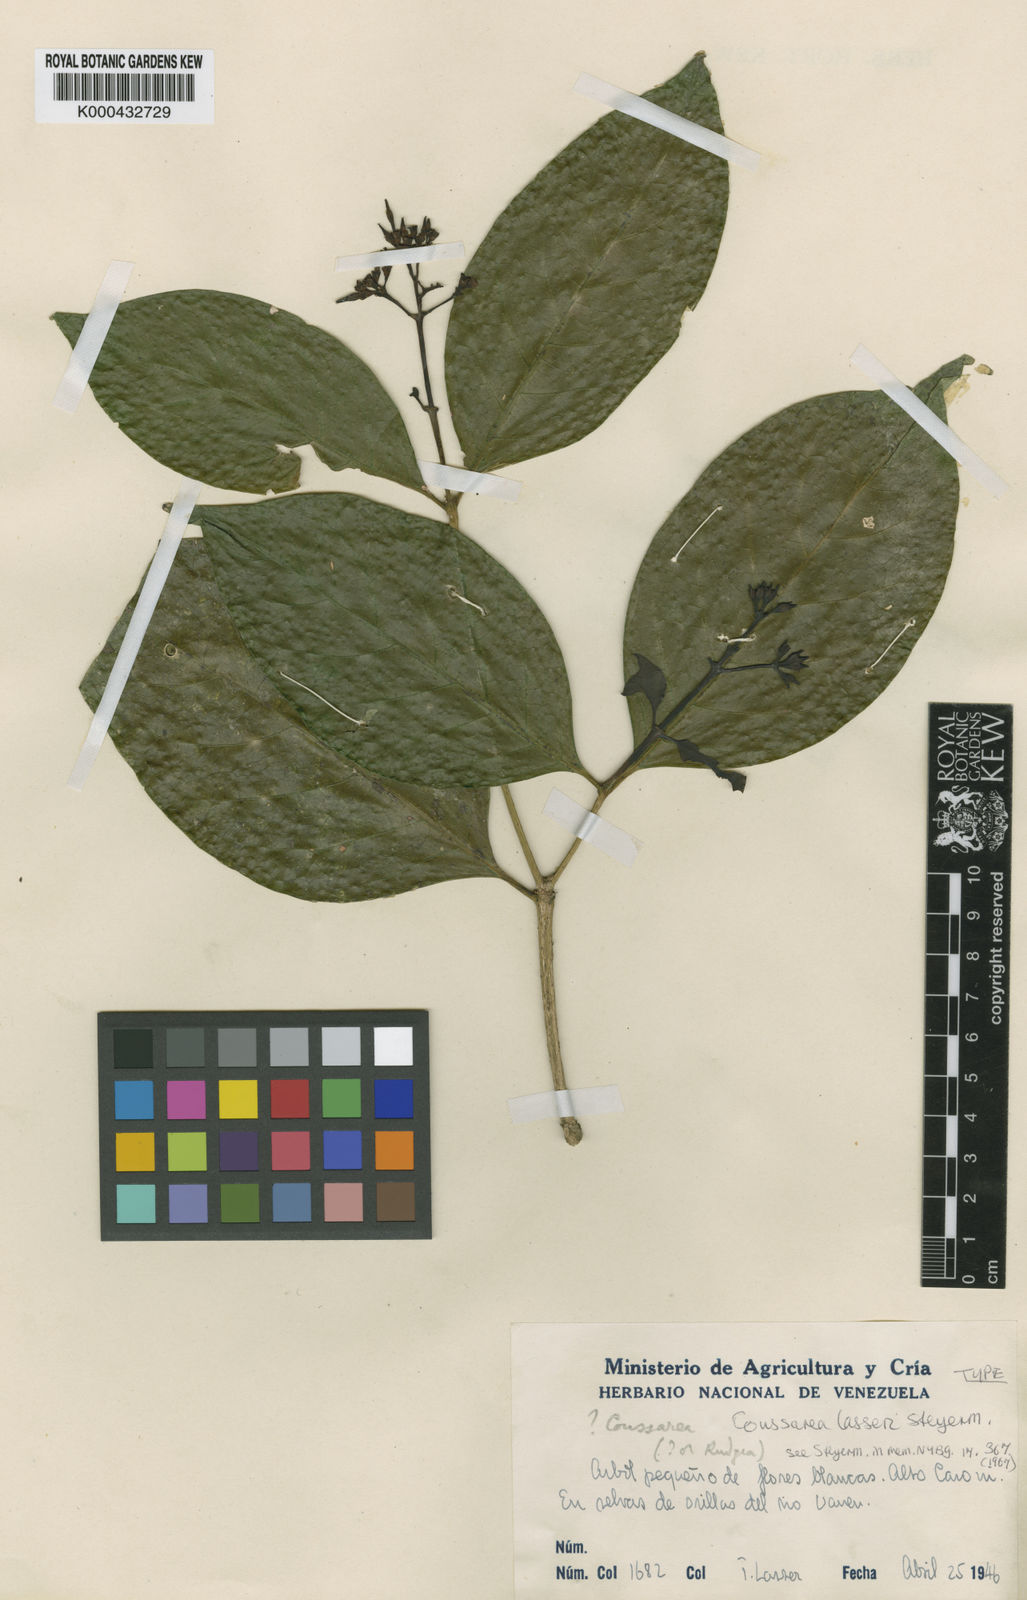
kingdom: Plantae
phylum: Tracheophyta
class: Magnoliopsida
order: Gentianales
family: Rubiaceae
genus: Coussarea
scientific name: Coussarea lasseri
